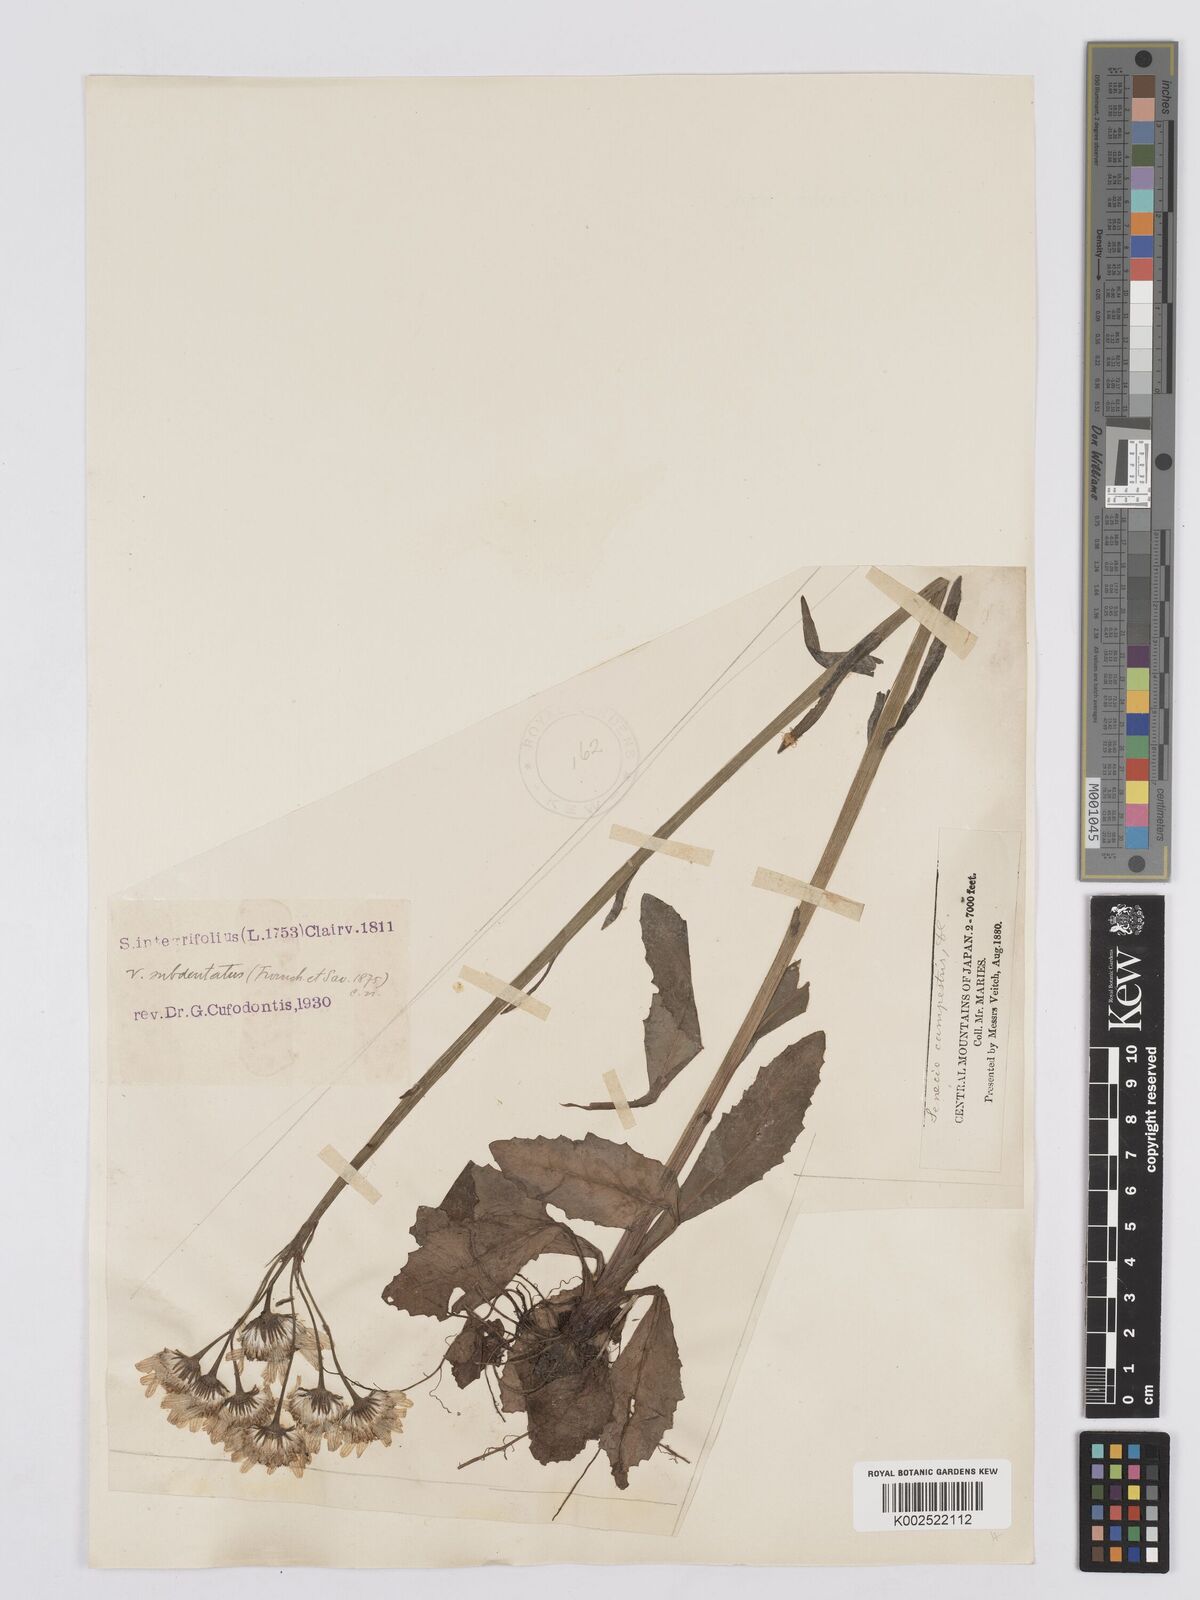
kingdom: Plantae
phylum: Tracheophyta
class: Magnoliopsida
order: Asterales
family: Asteraceae
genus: Tephroseris
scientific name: Tephroseris kirilowii
